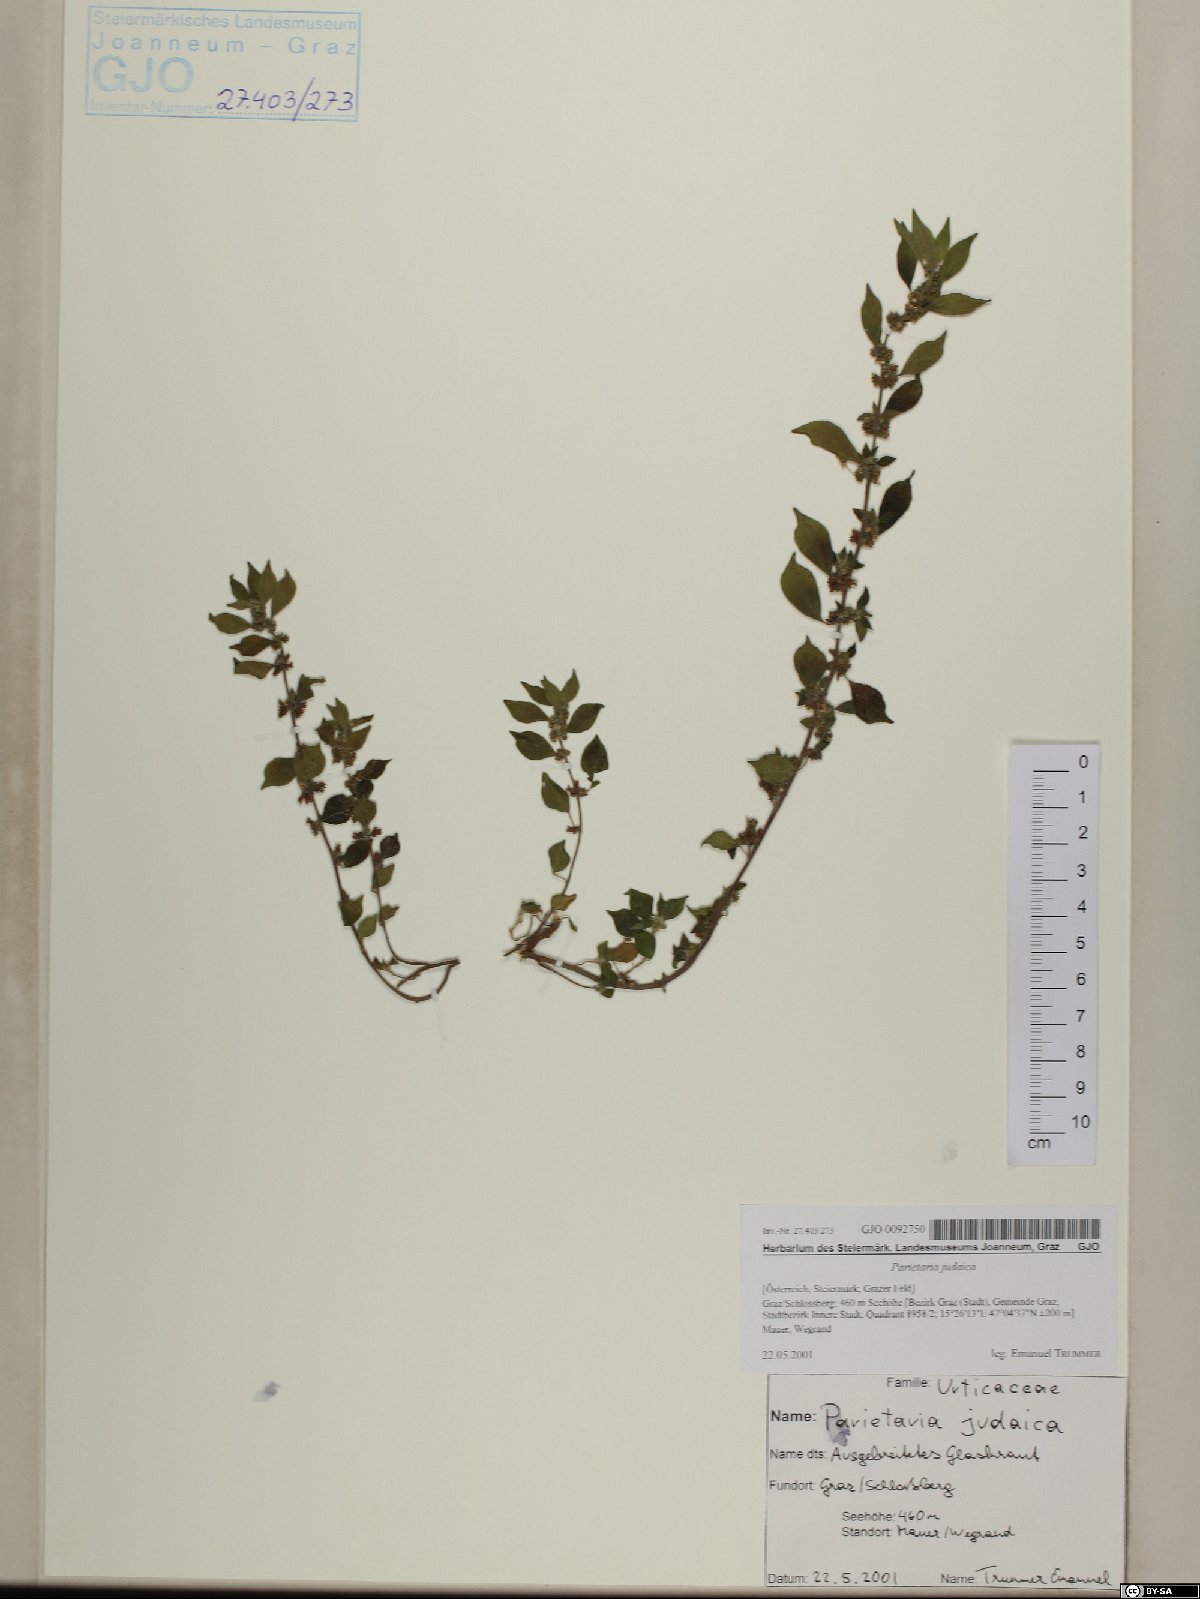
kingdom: Plantae
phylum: Tracheophyta
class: Magnoliopsida
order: Rosales
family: Urticaceae
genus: Parietaria
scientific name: Parietaria judaica
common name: Pellitory-of-the-wall
